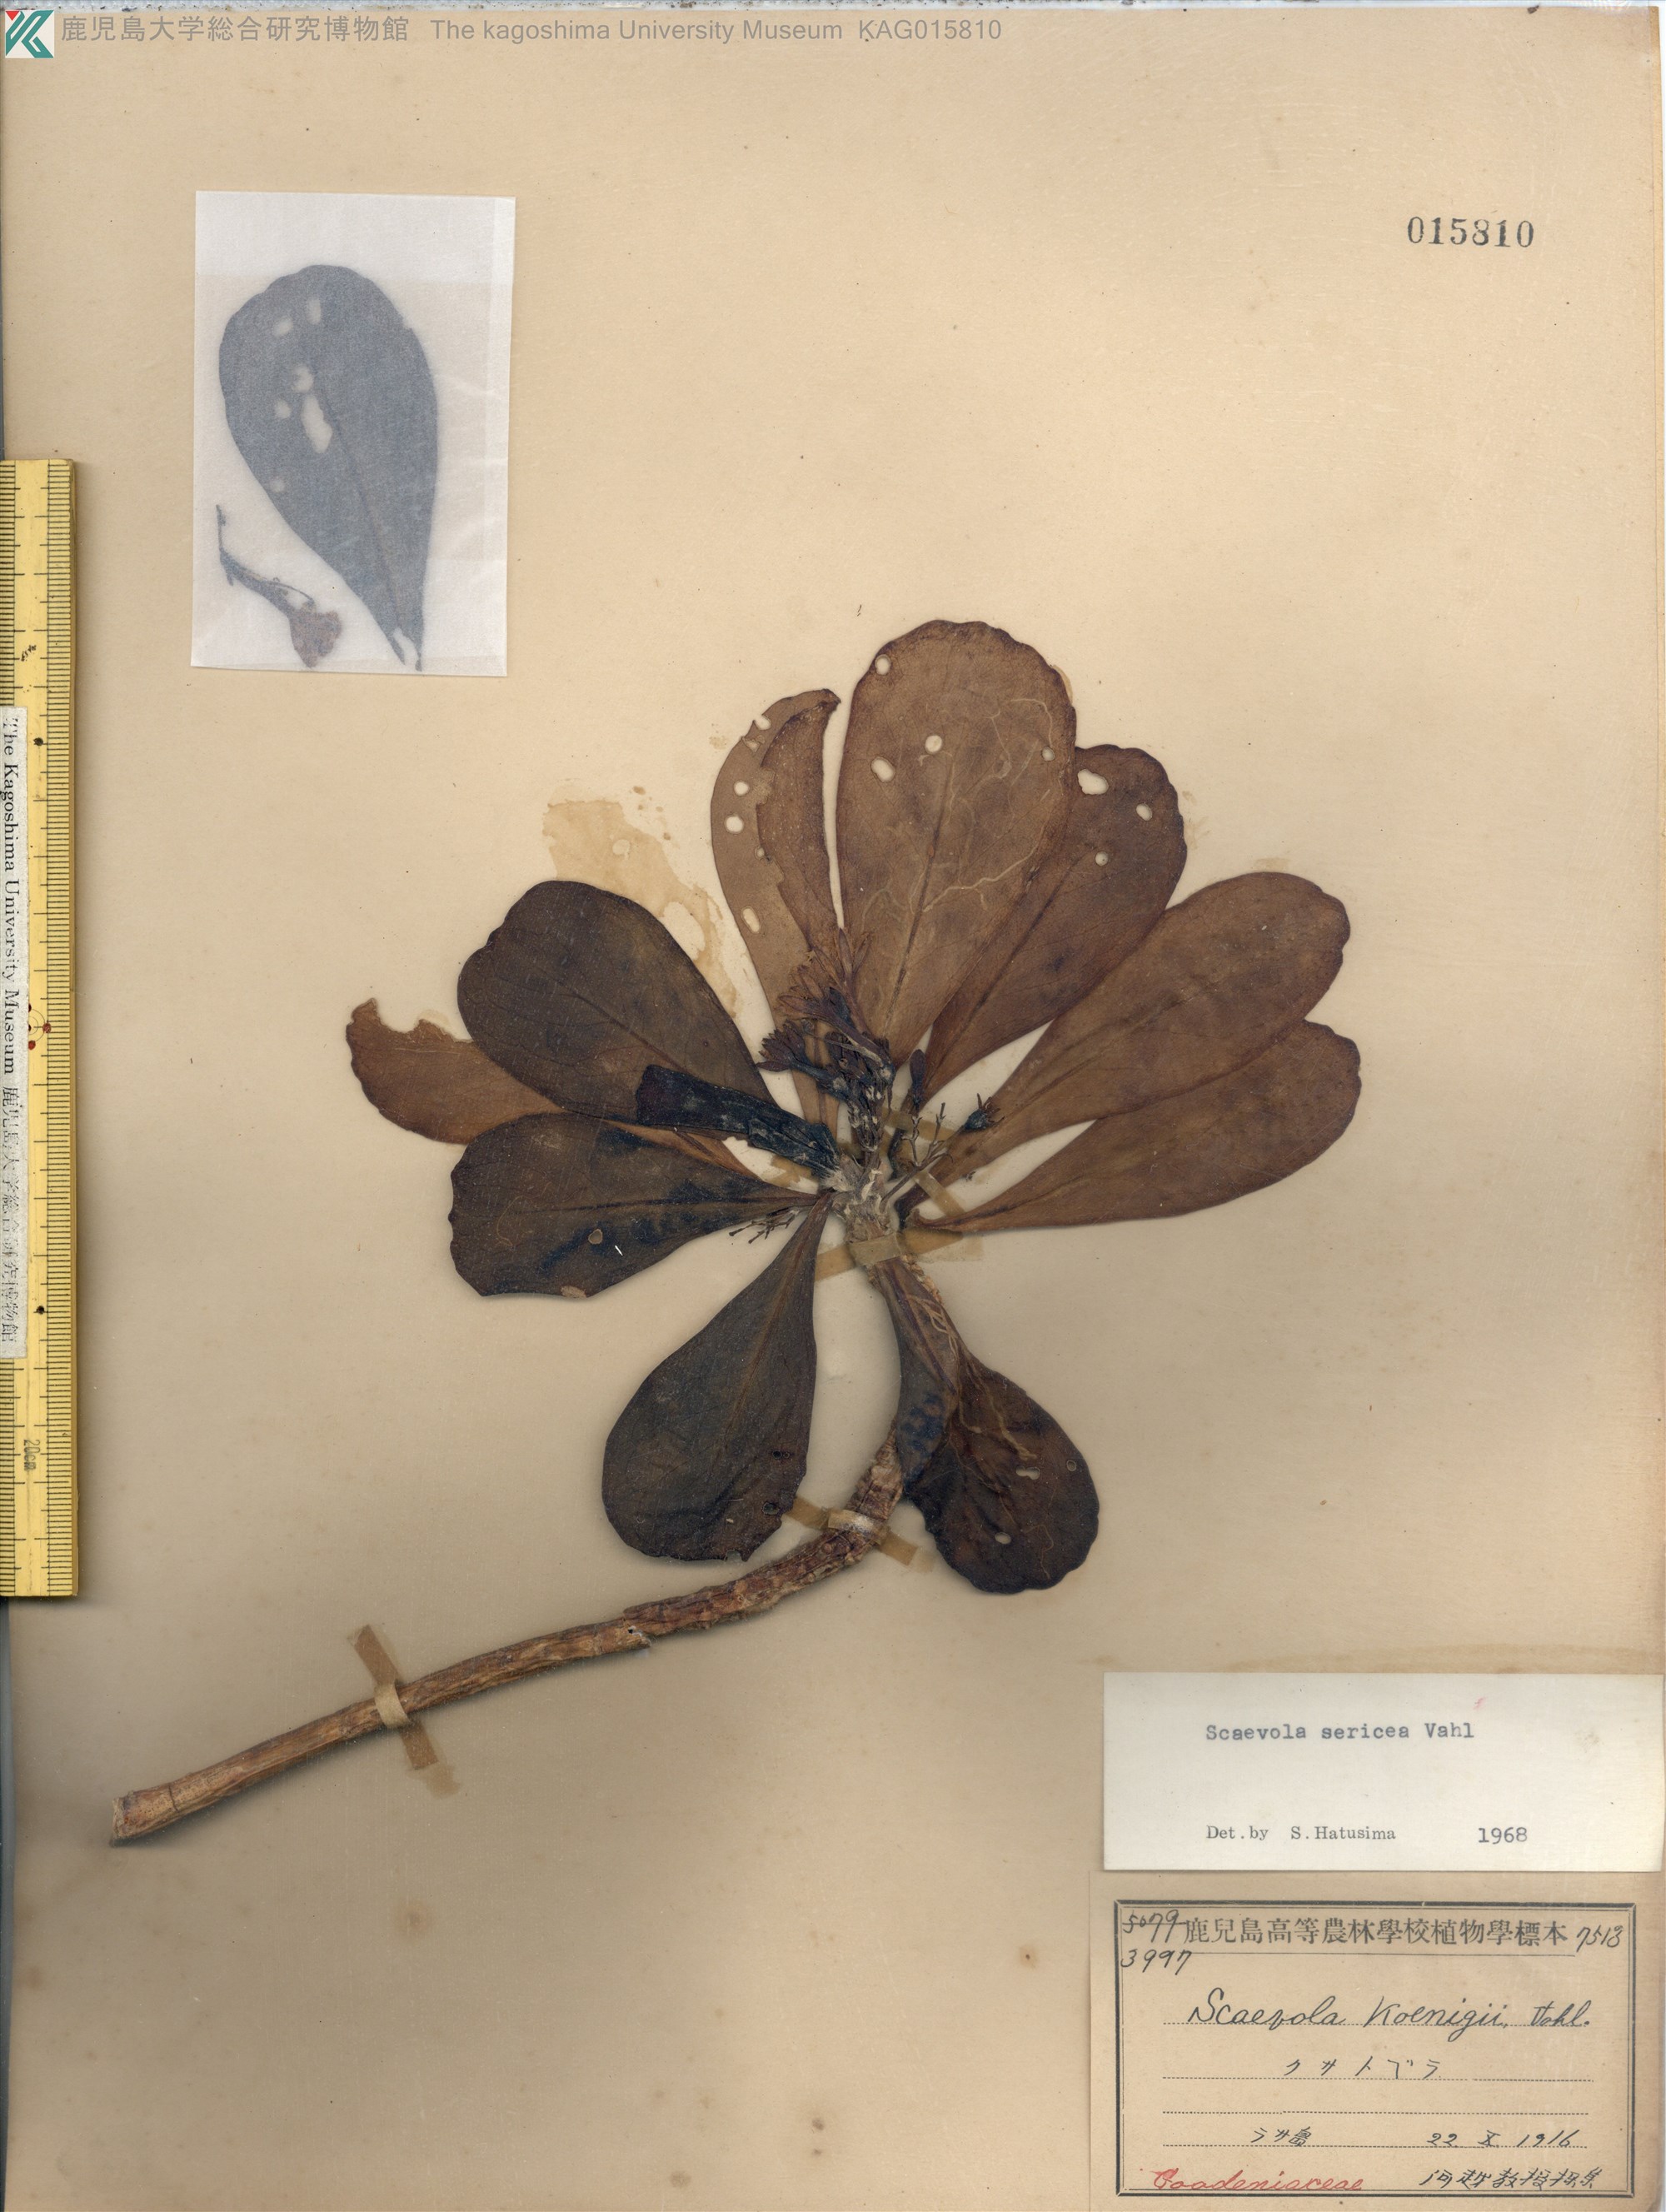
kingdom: Plantae
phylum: Tracheophyta
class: Magnoliopsida
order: Asterales
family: Goodeniaceae
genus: Scaevola
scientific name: Scaevola taccada
